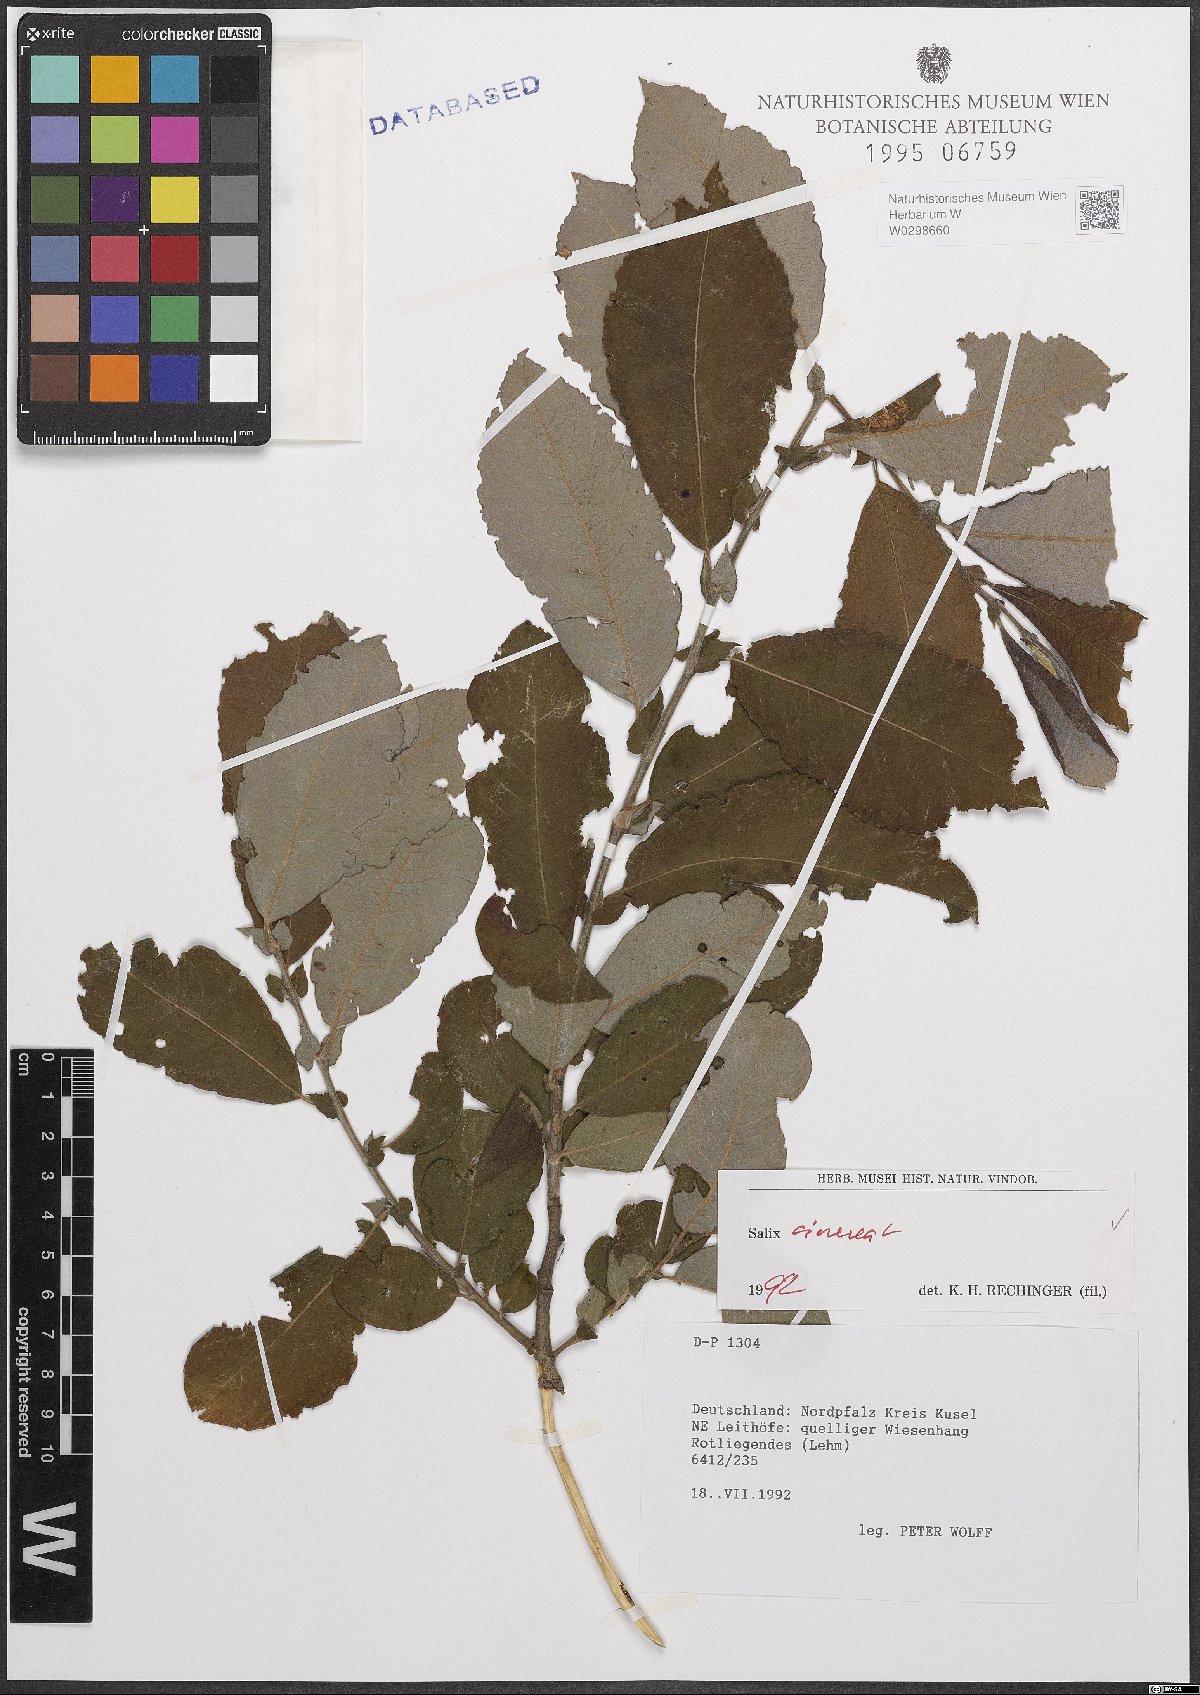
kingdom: Plantae
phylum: Tracheophyta
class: Magnoliopsida
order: Malpighiales
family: Salicaceae
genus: Salix
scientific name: Salix cinerea
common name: Common sallow
